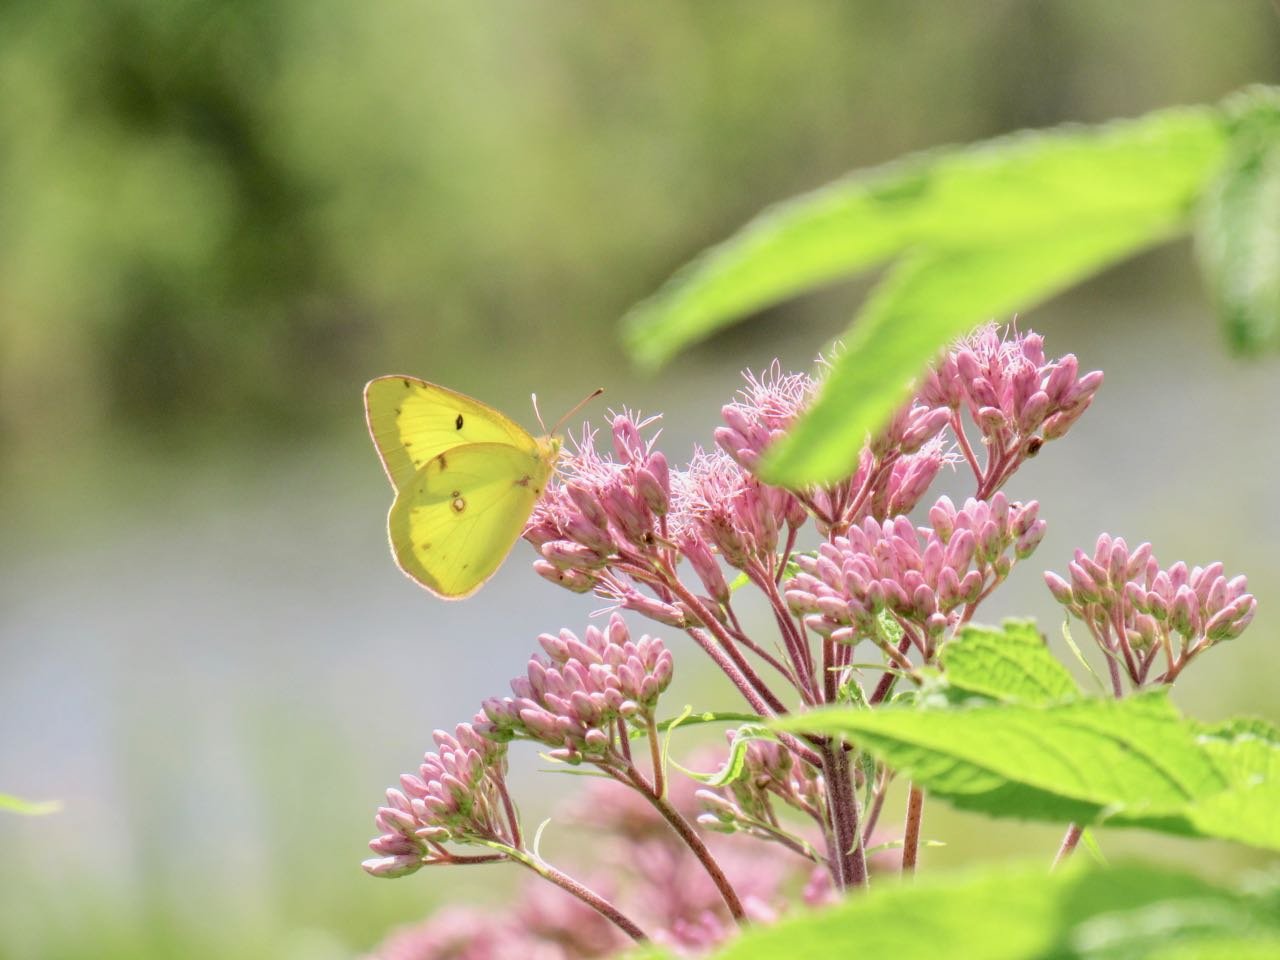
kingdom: Animalia
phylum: Arthropoda
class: Insecta
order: Lepidoptera
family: Pieridae
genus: Colias
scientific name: Colias philodice
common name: Clouded Sulphur
